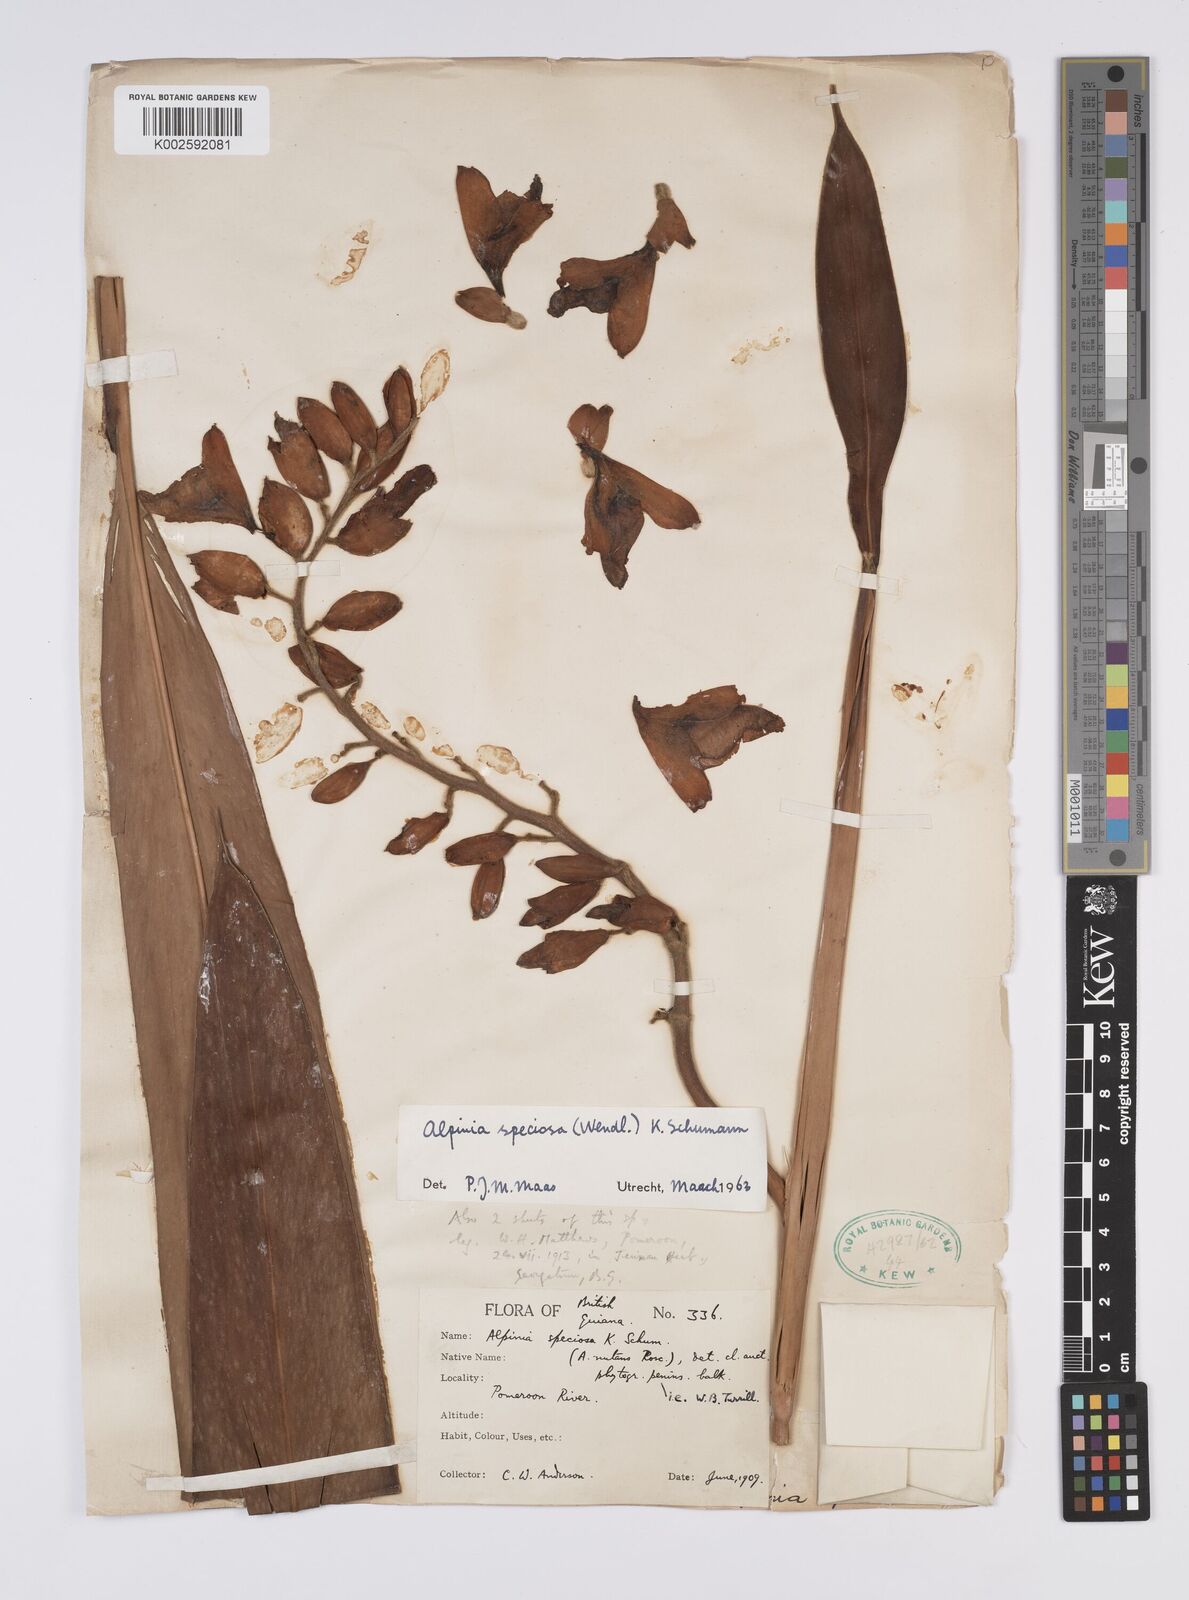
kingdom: Plantae
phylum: Tracheophyta
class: Liliopsida
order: Zingiberales
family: Zingiberaceae
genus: Alpinia
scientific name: Alpinia zerumbet
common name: Shellplant
